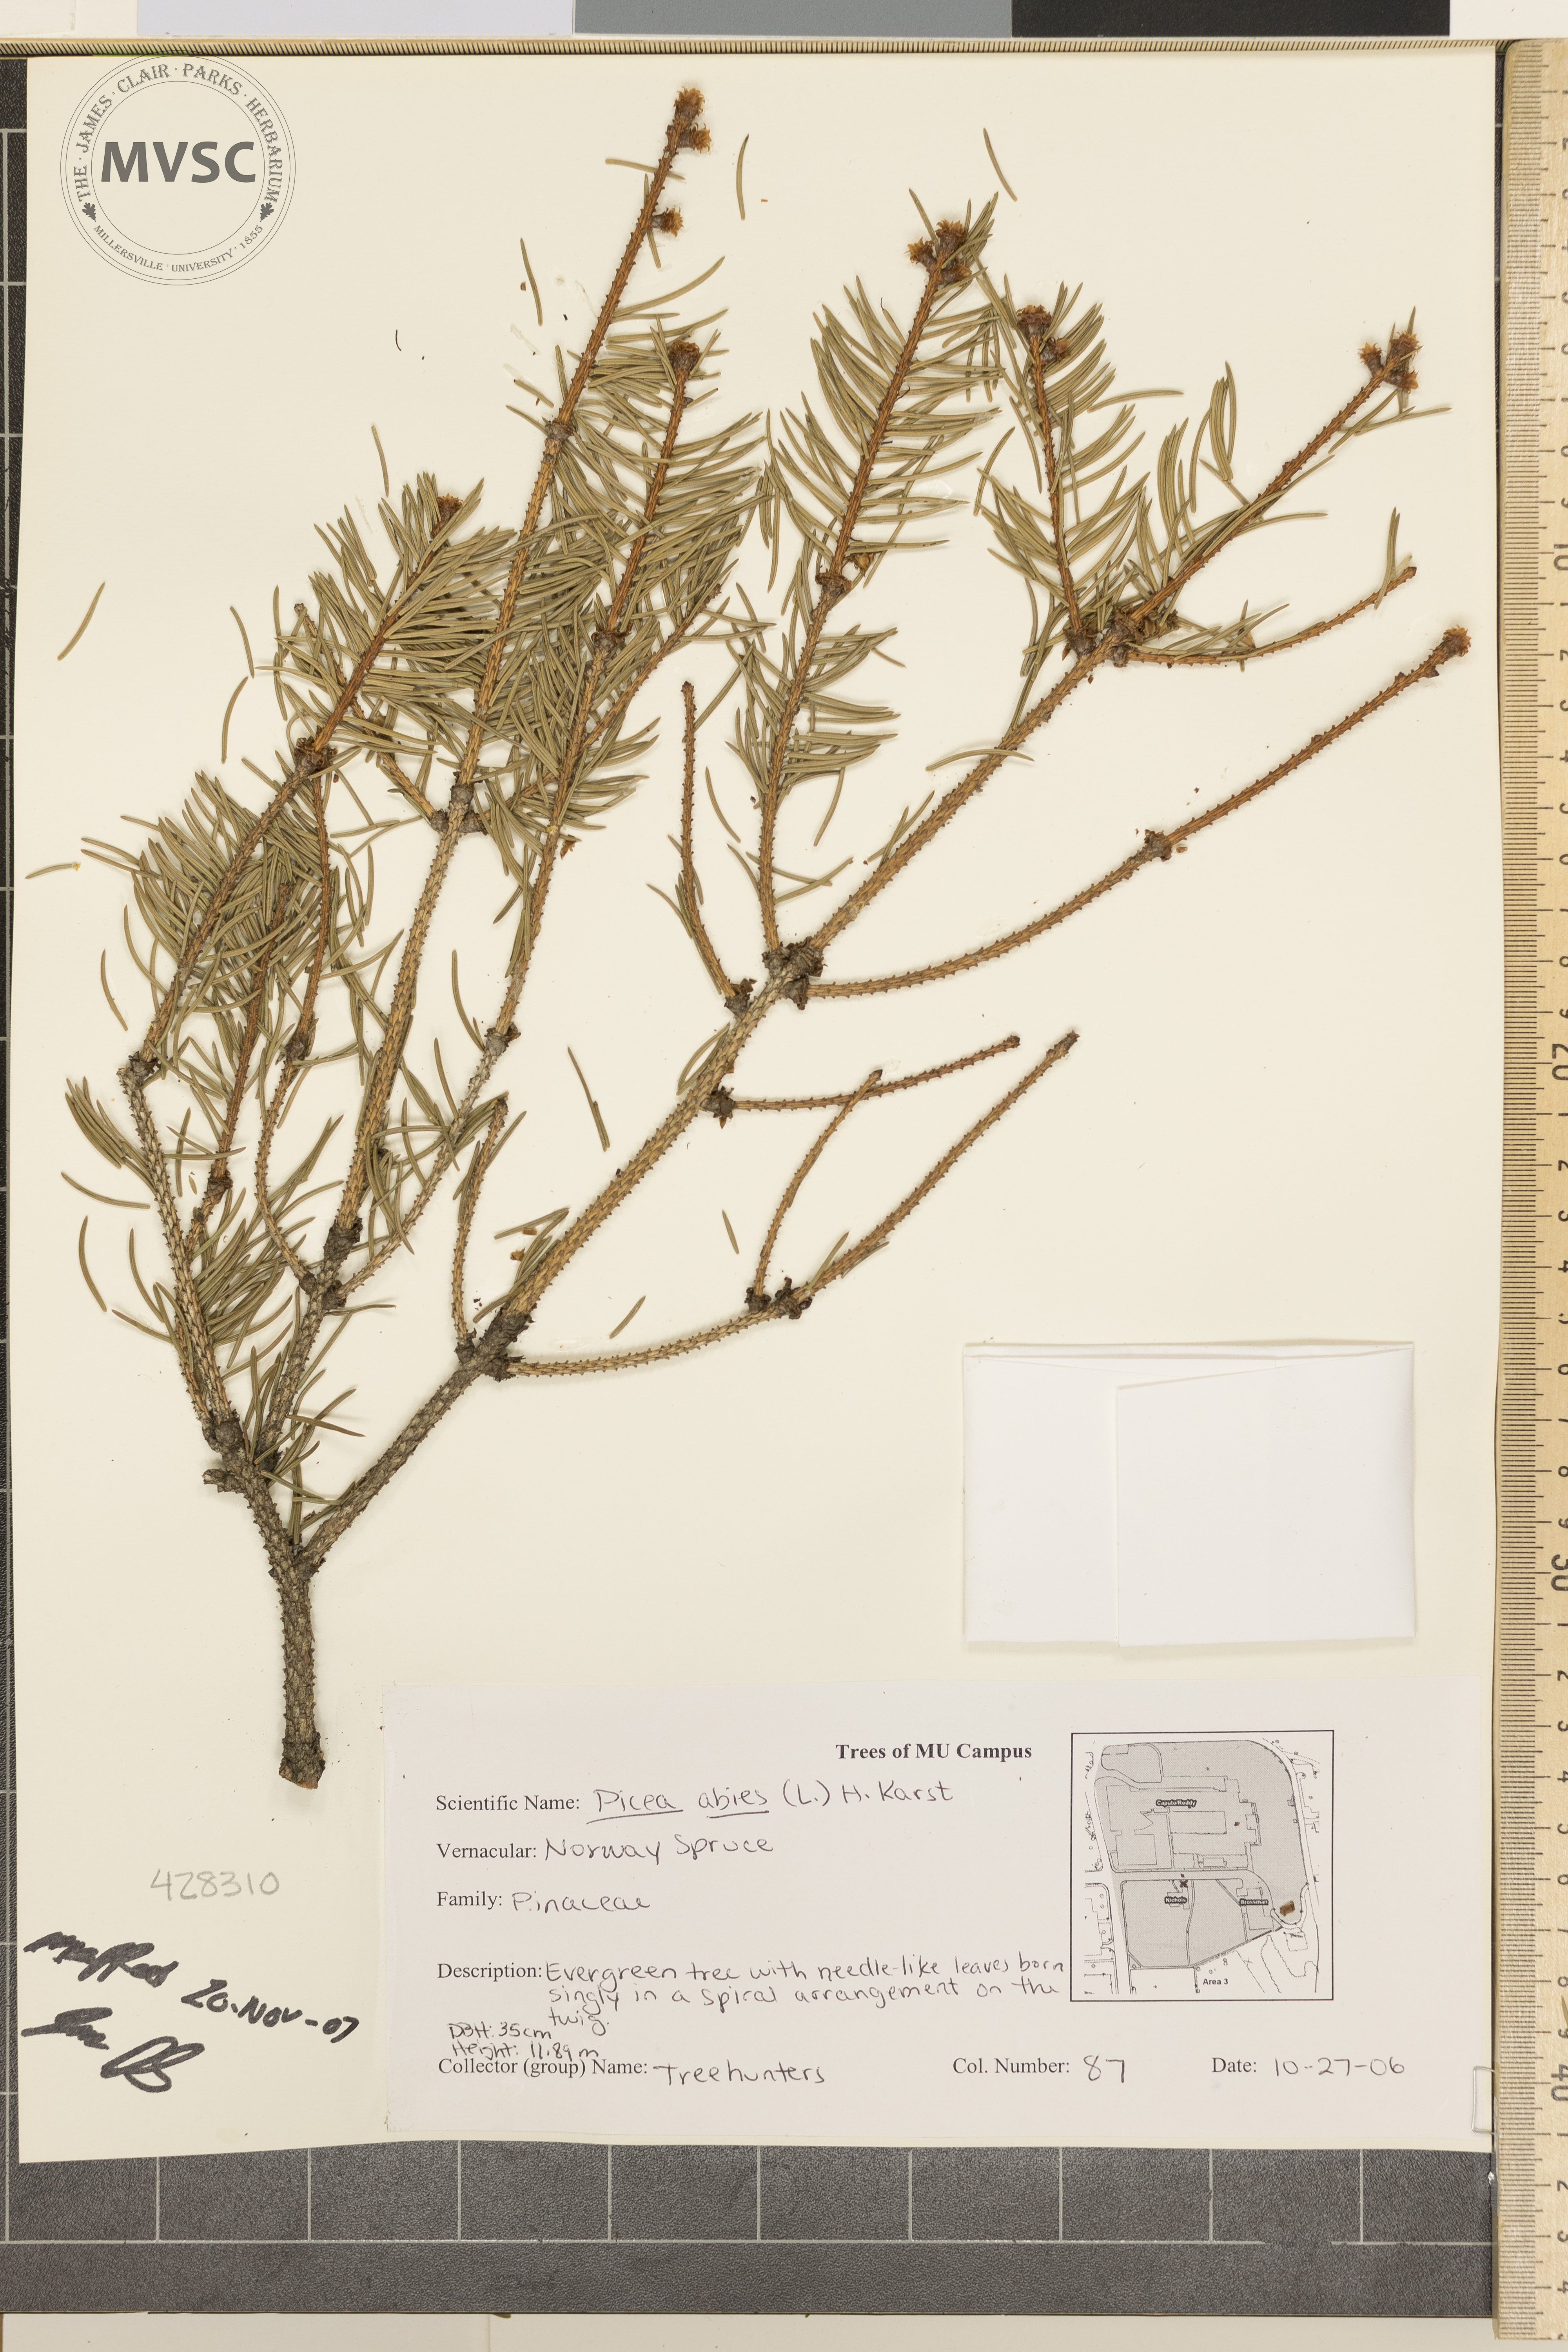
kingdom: Plantae
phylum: Tracheophyta
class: Pinopsida
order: Pinales
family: Pinaceae
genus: Picea
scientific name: Picea abies
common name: Norway Spruce
